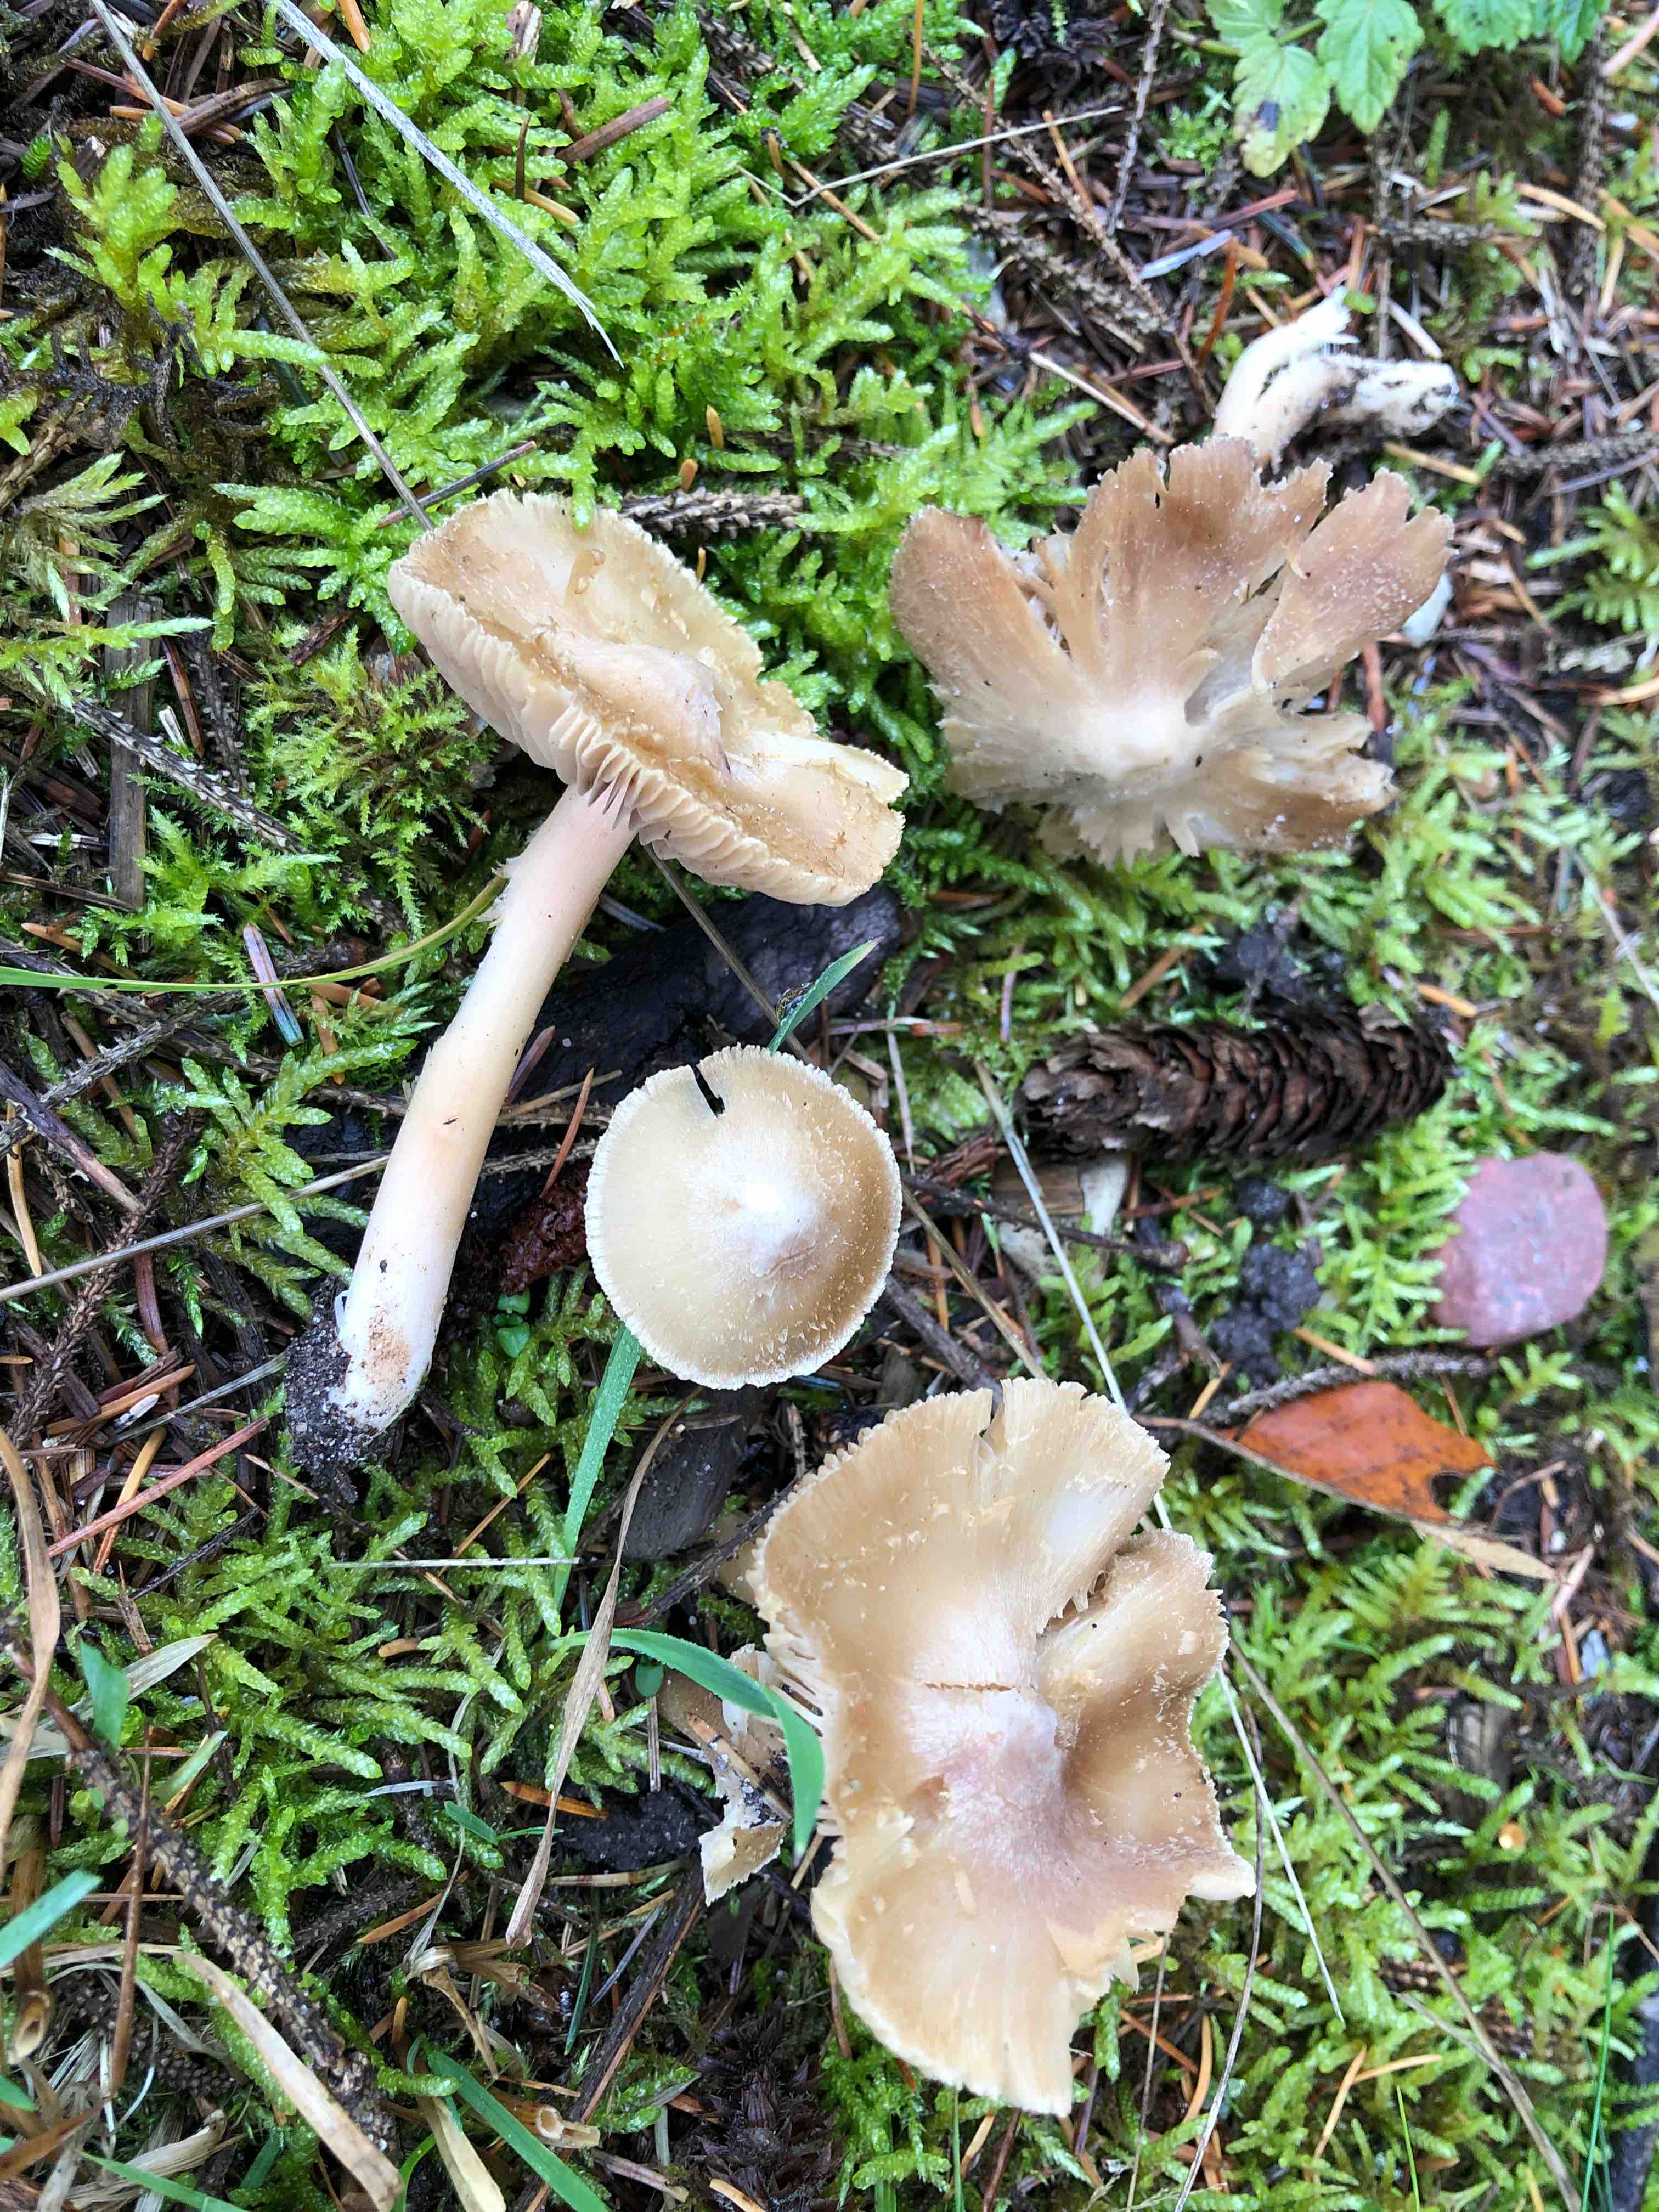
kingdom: Fungi
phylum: Basidiomycota
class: Agaricomycetes
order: Agaricales
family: Inocybaceae
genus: Inosperma
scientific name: Inosperma
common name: Trævlhat
